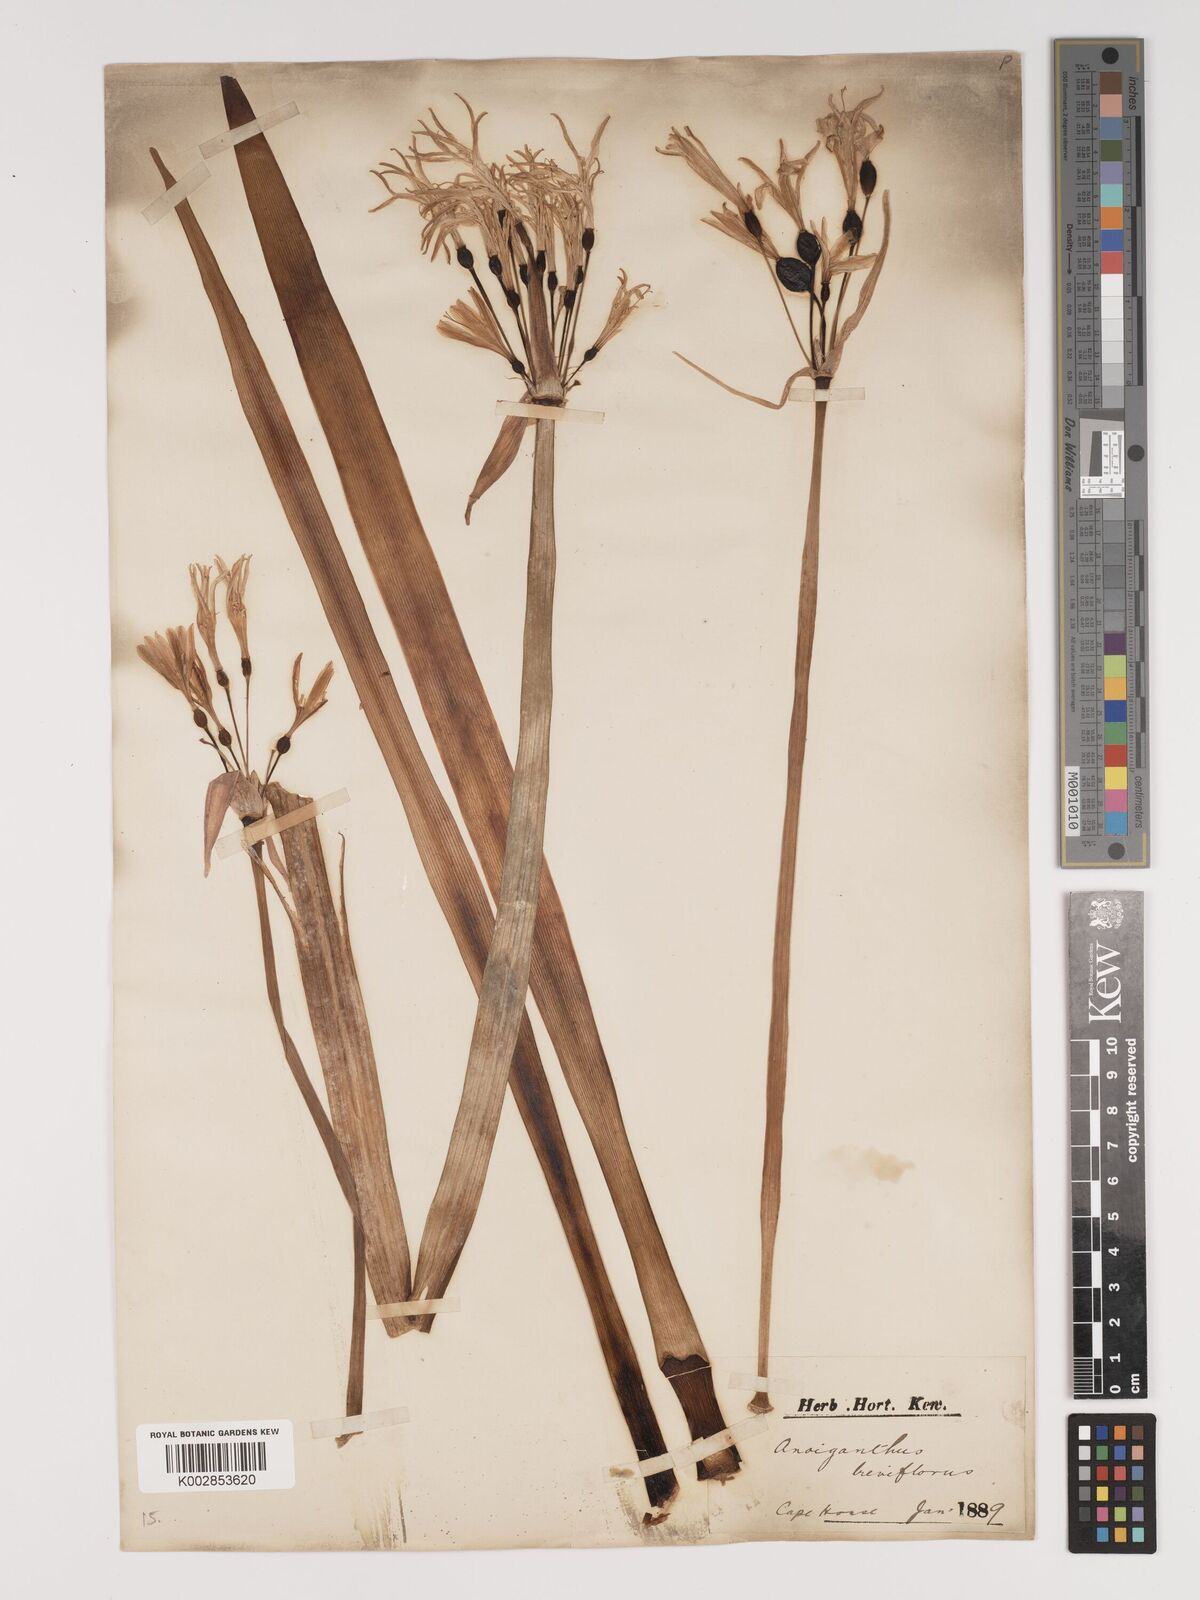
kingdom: Plantae
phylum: Tracheophyta
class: Liliopsida
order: Asparagales
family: Amaryllidaceae
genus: Cyrtanthus
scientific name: Cyrtanthus breviflorus
